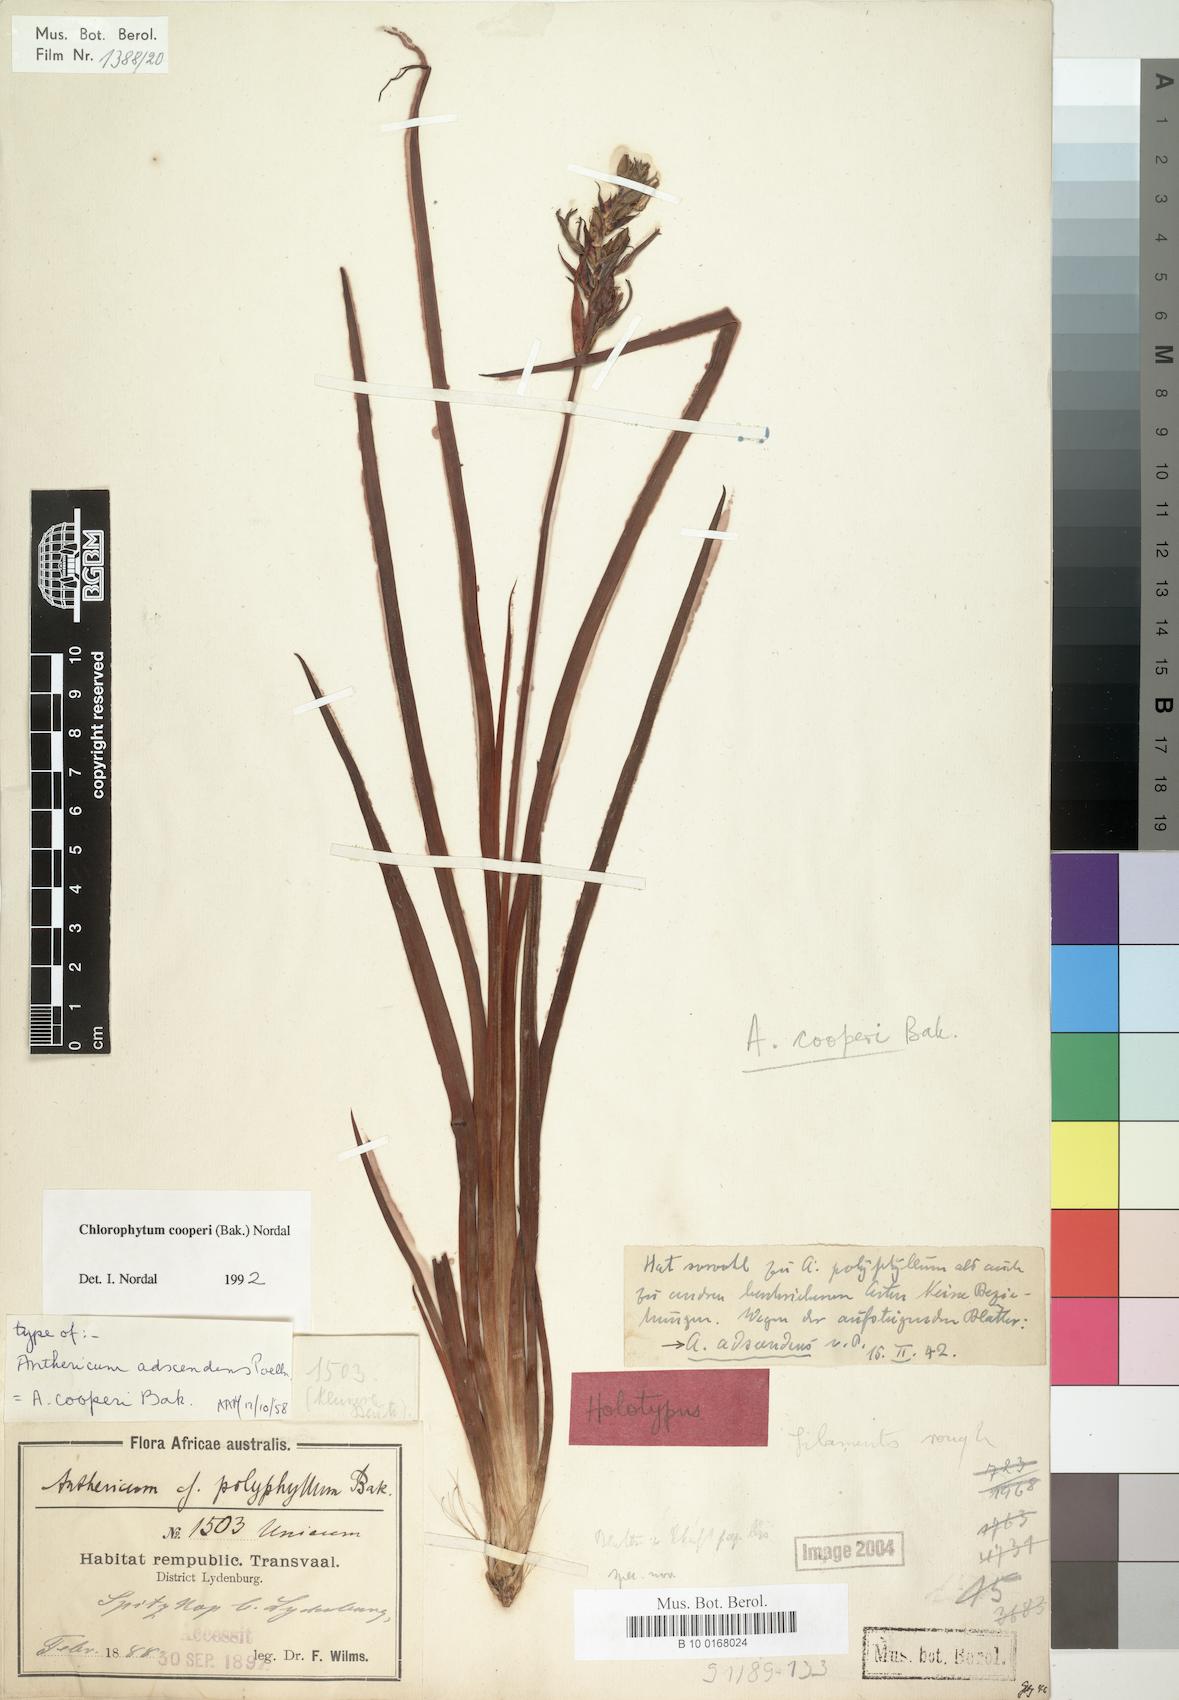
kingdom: Plantae
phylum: Tracheophyta
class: Liliopsida
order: Asparagales
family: Asparagaceae
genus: Chlorophytum
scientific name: Chlorophytum cooperi
